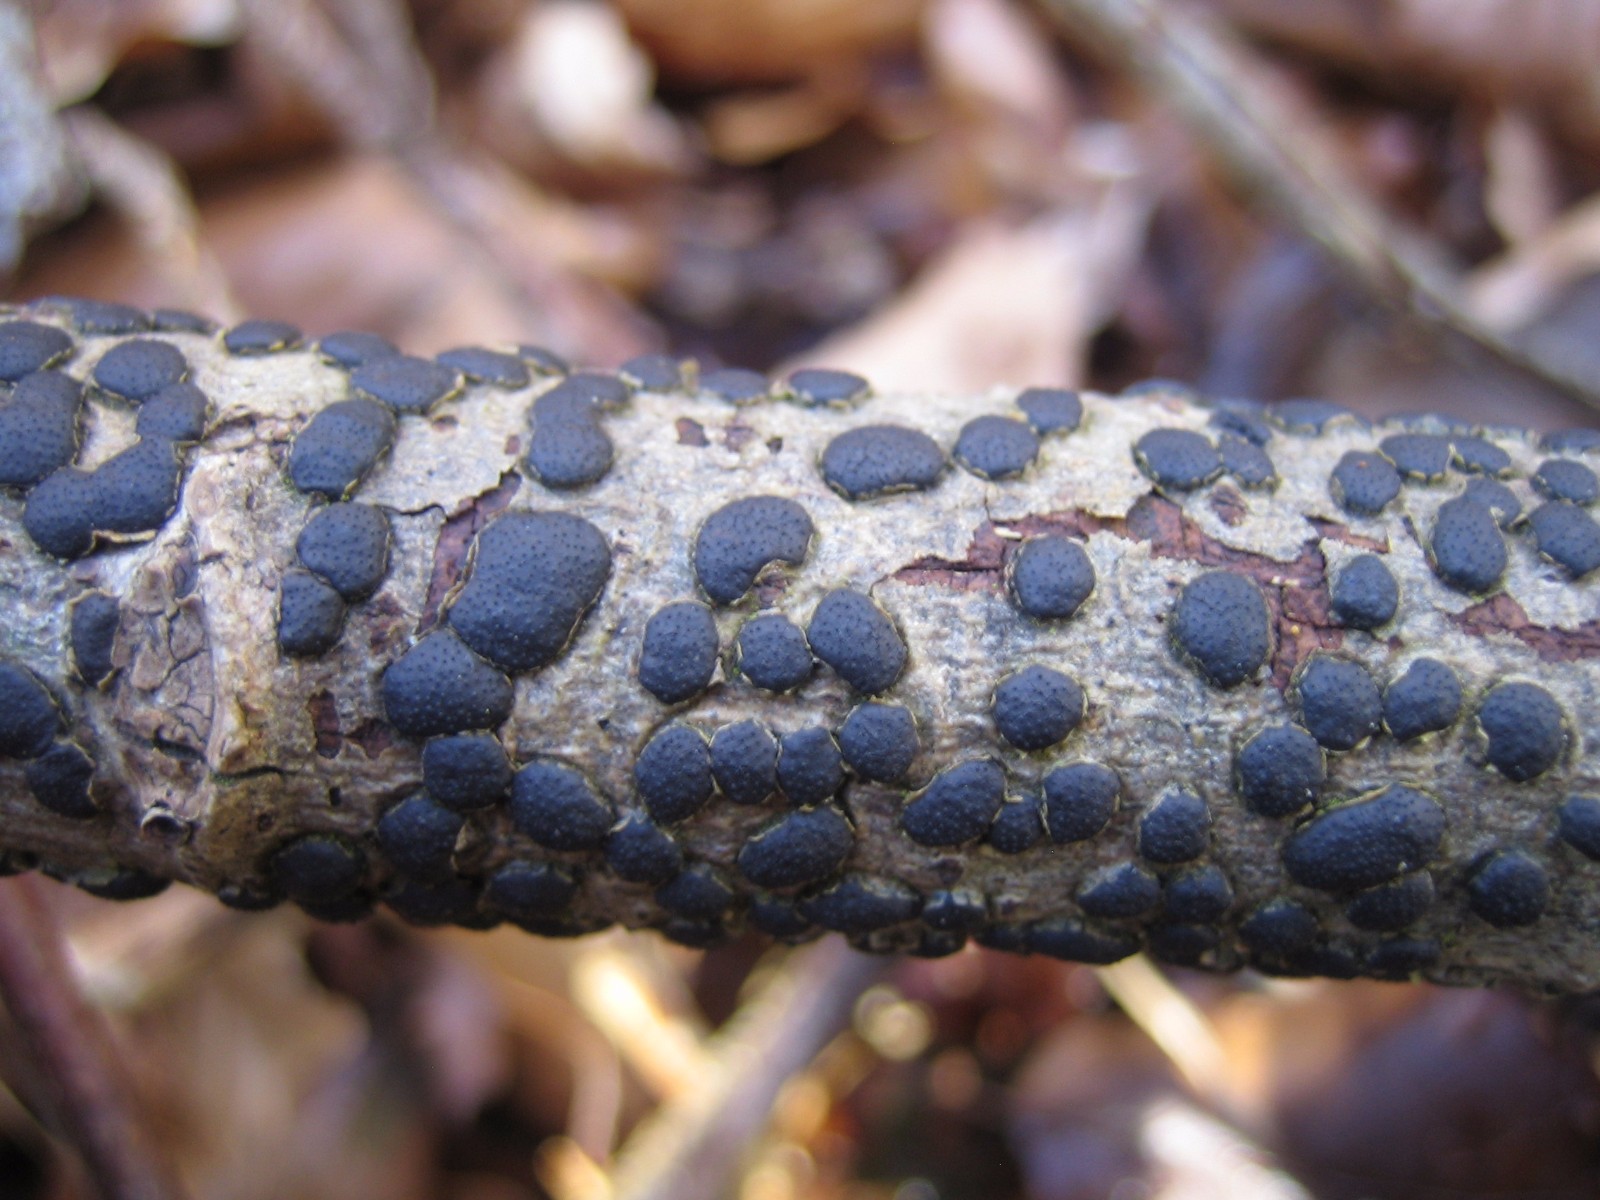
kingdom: Fungi
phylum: Ascomycota
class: Sordariomycetes
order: Xylariales
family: Diatrypaceae
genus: Diatrype
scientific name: Diatrype bullata
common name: pile-kulskorpe
